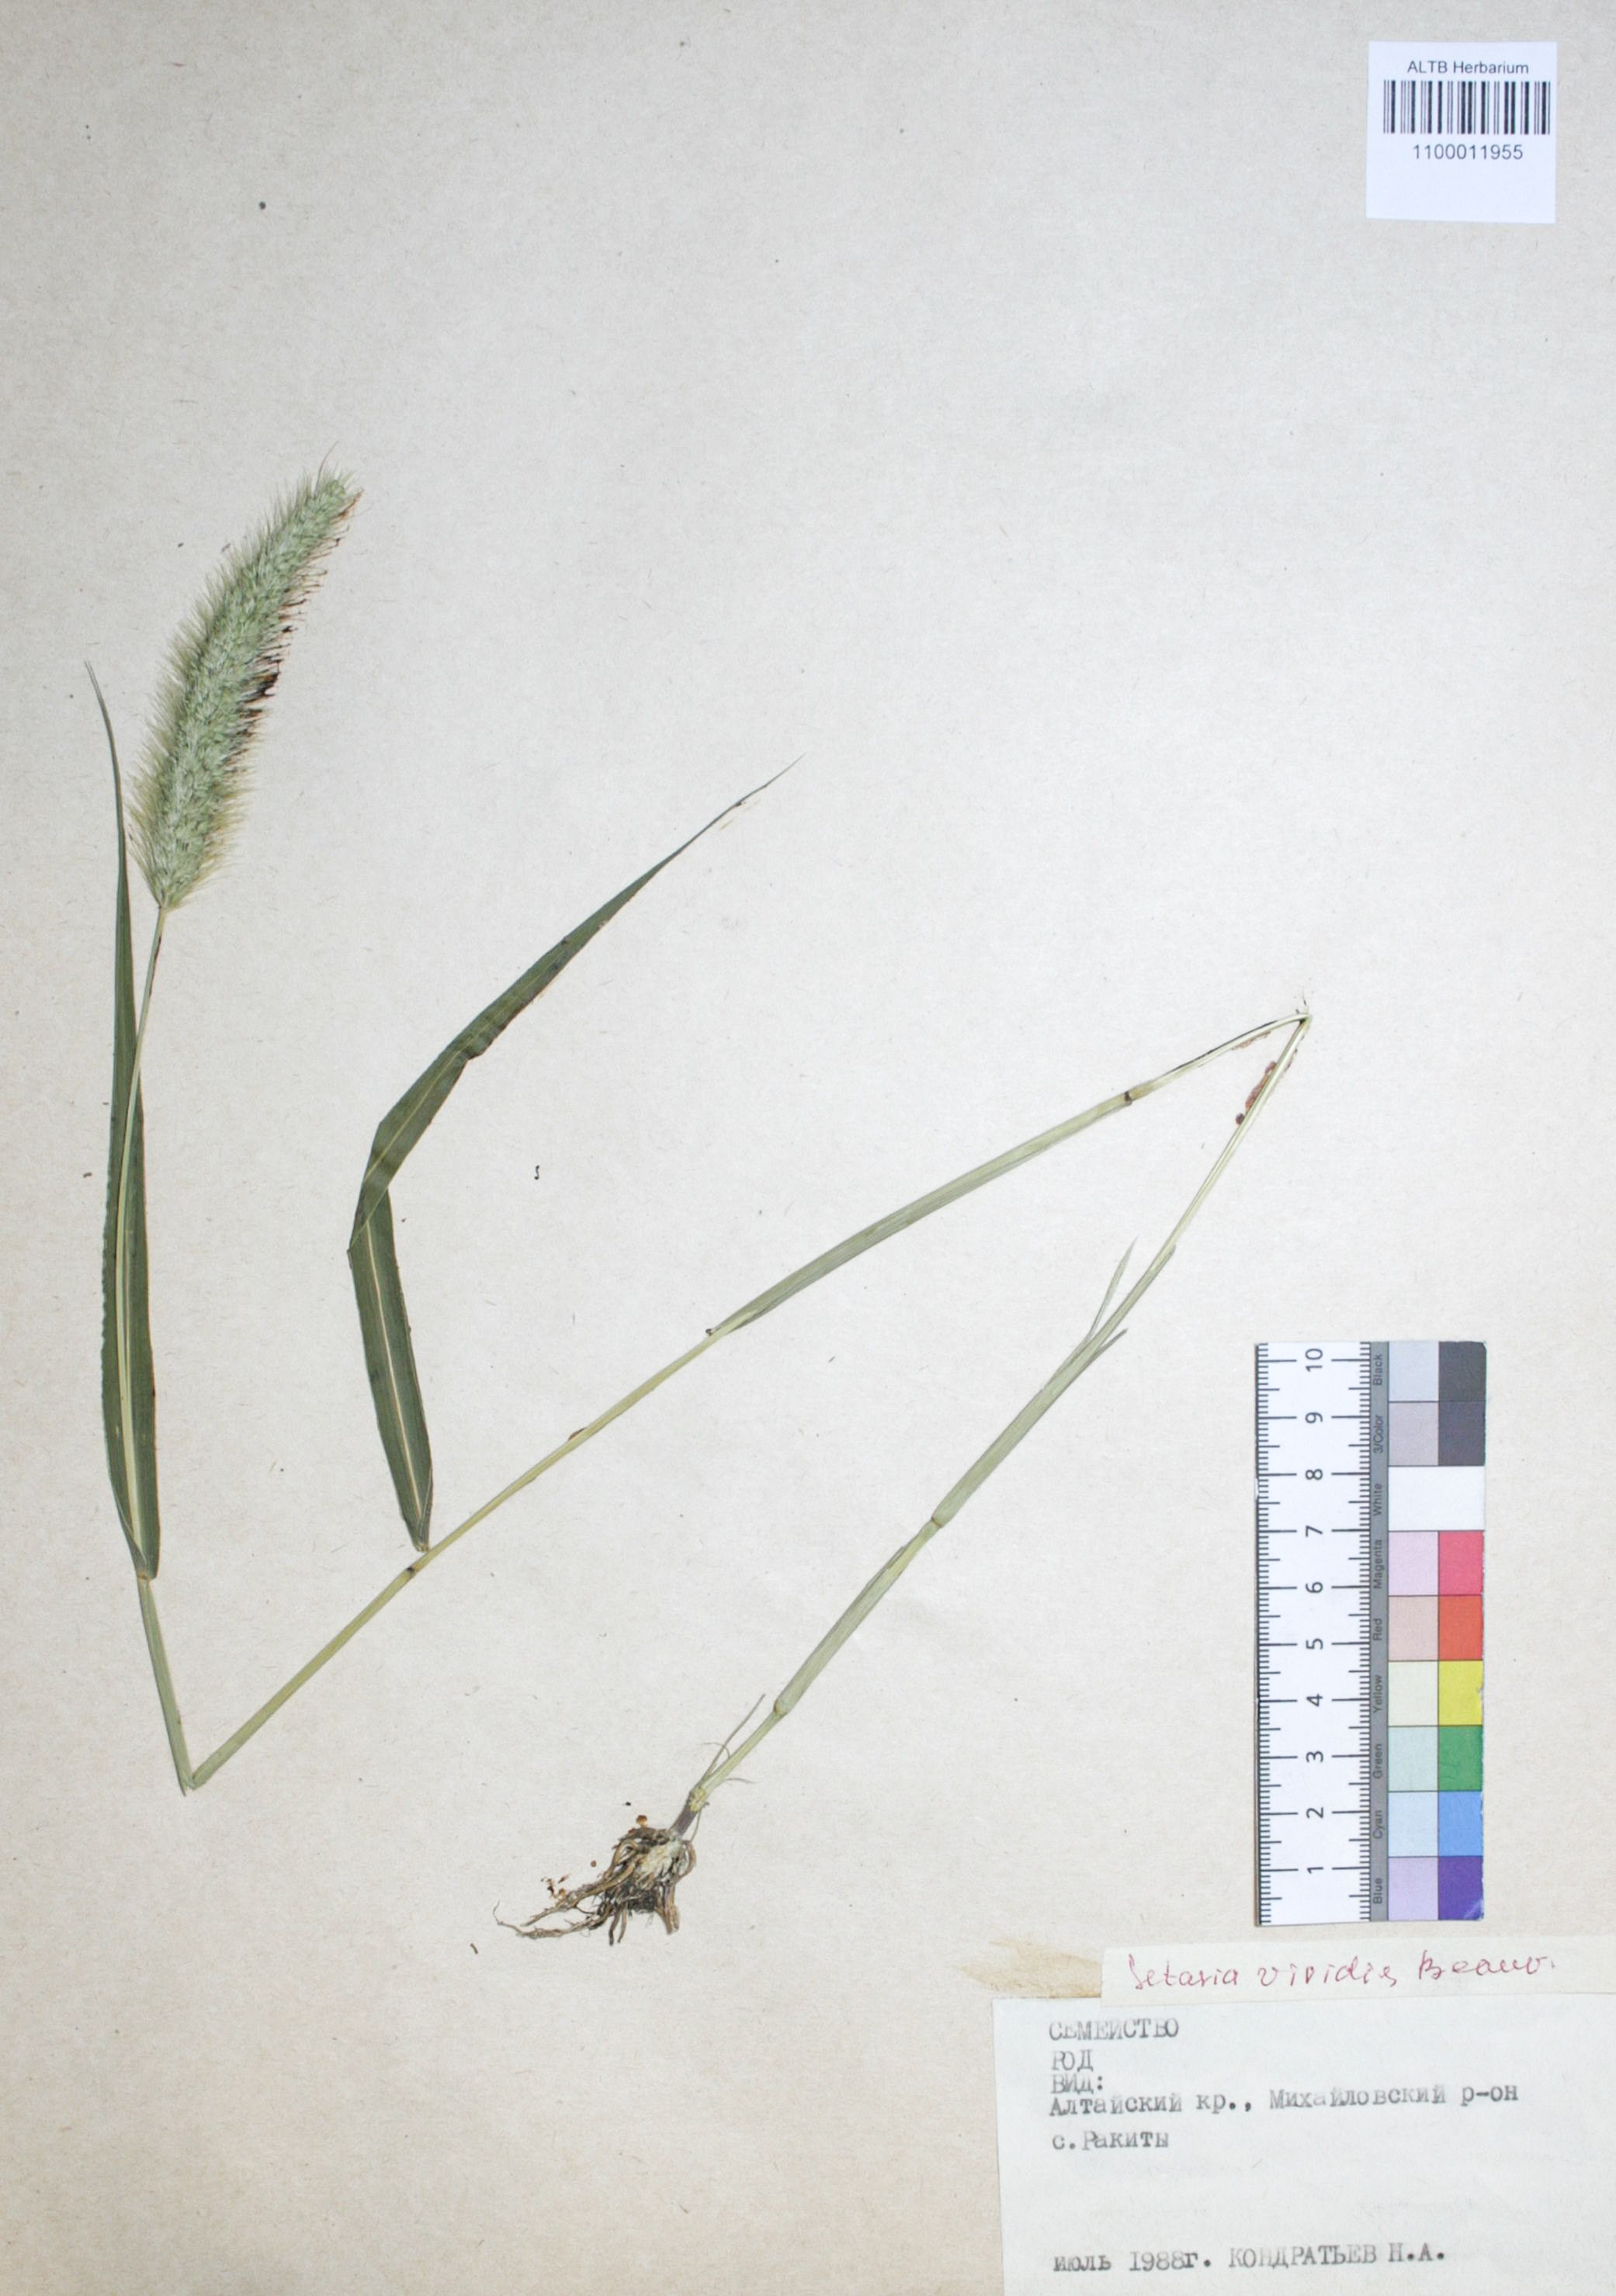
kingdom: Plantae
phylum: Tracheophyta
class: Liliopsida
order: Poales
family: Poaceae
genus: Setaria
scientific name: Setaria viridis
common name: Green bristlegrass
